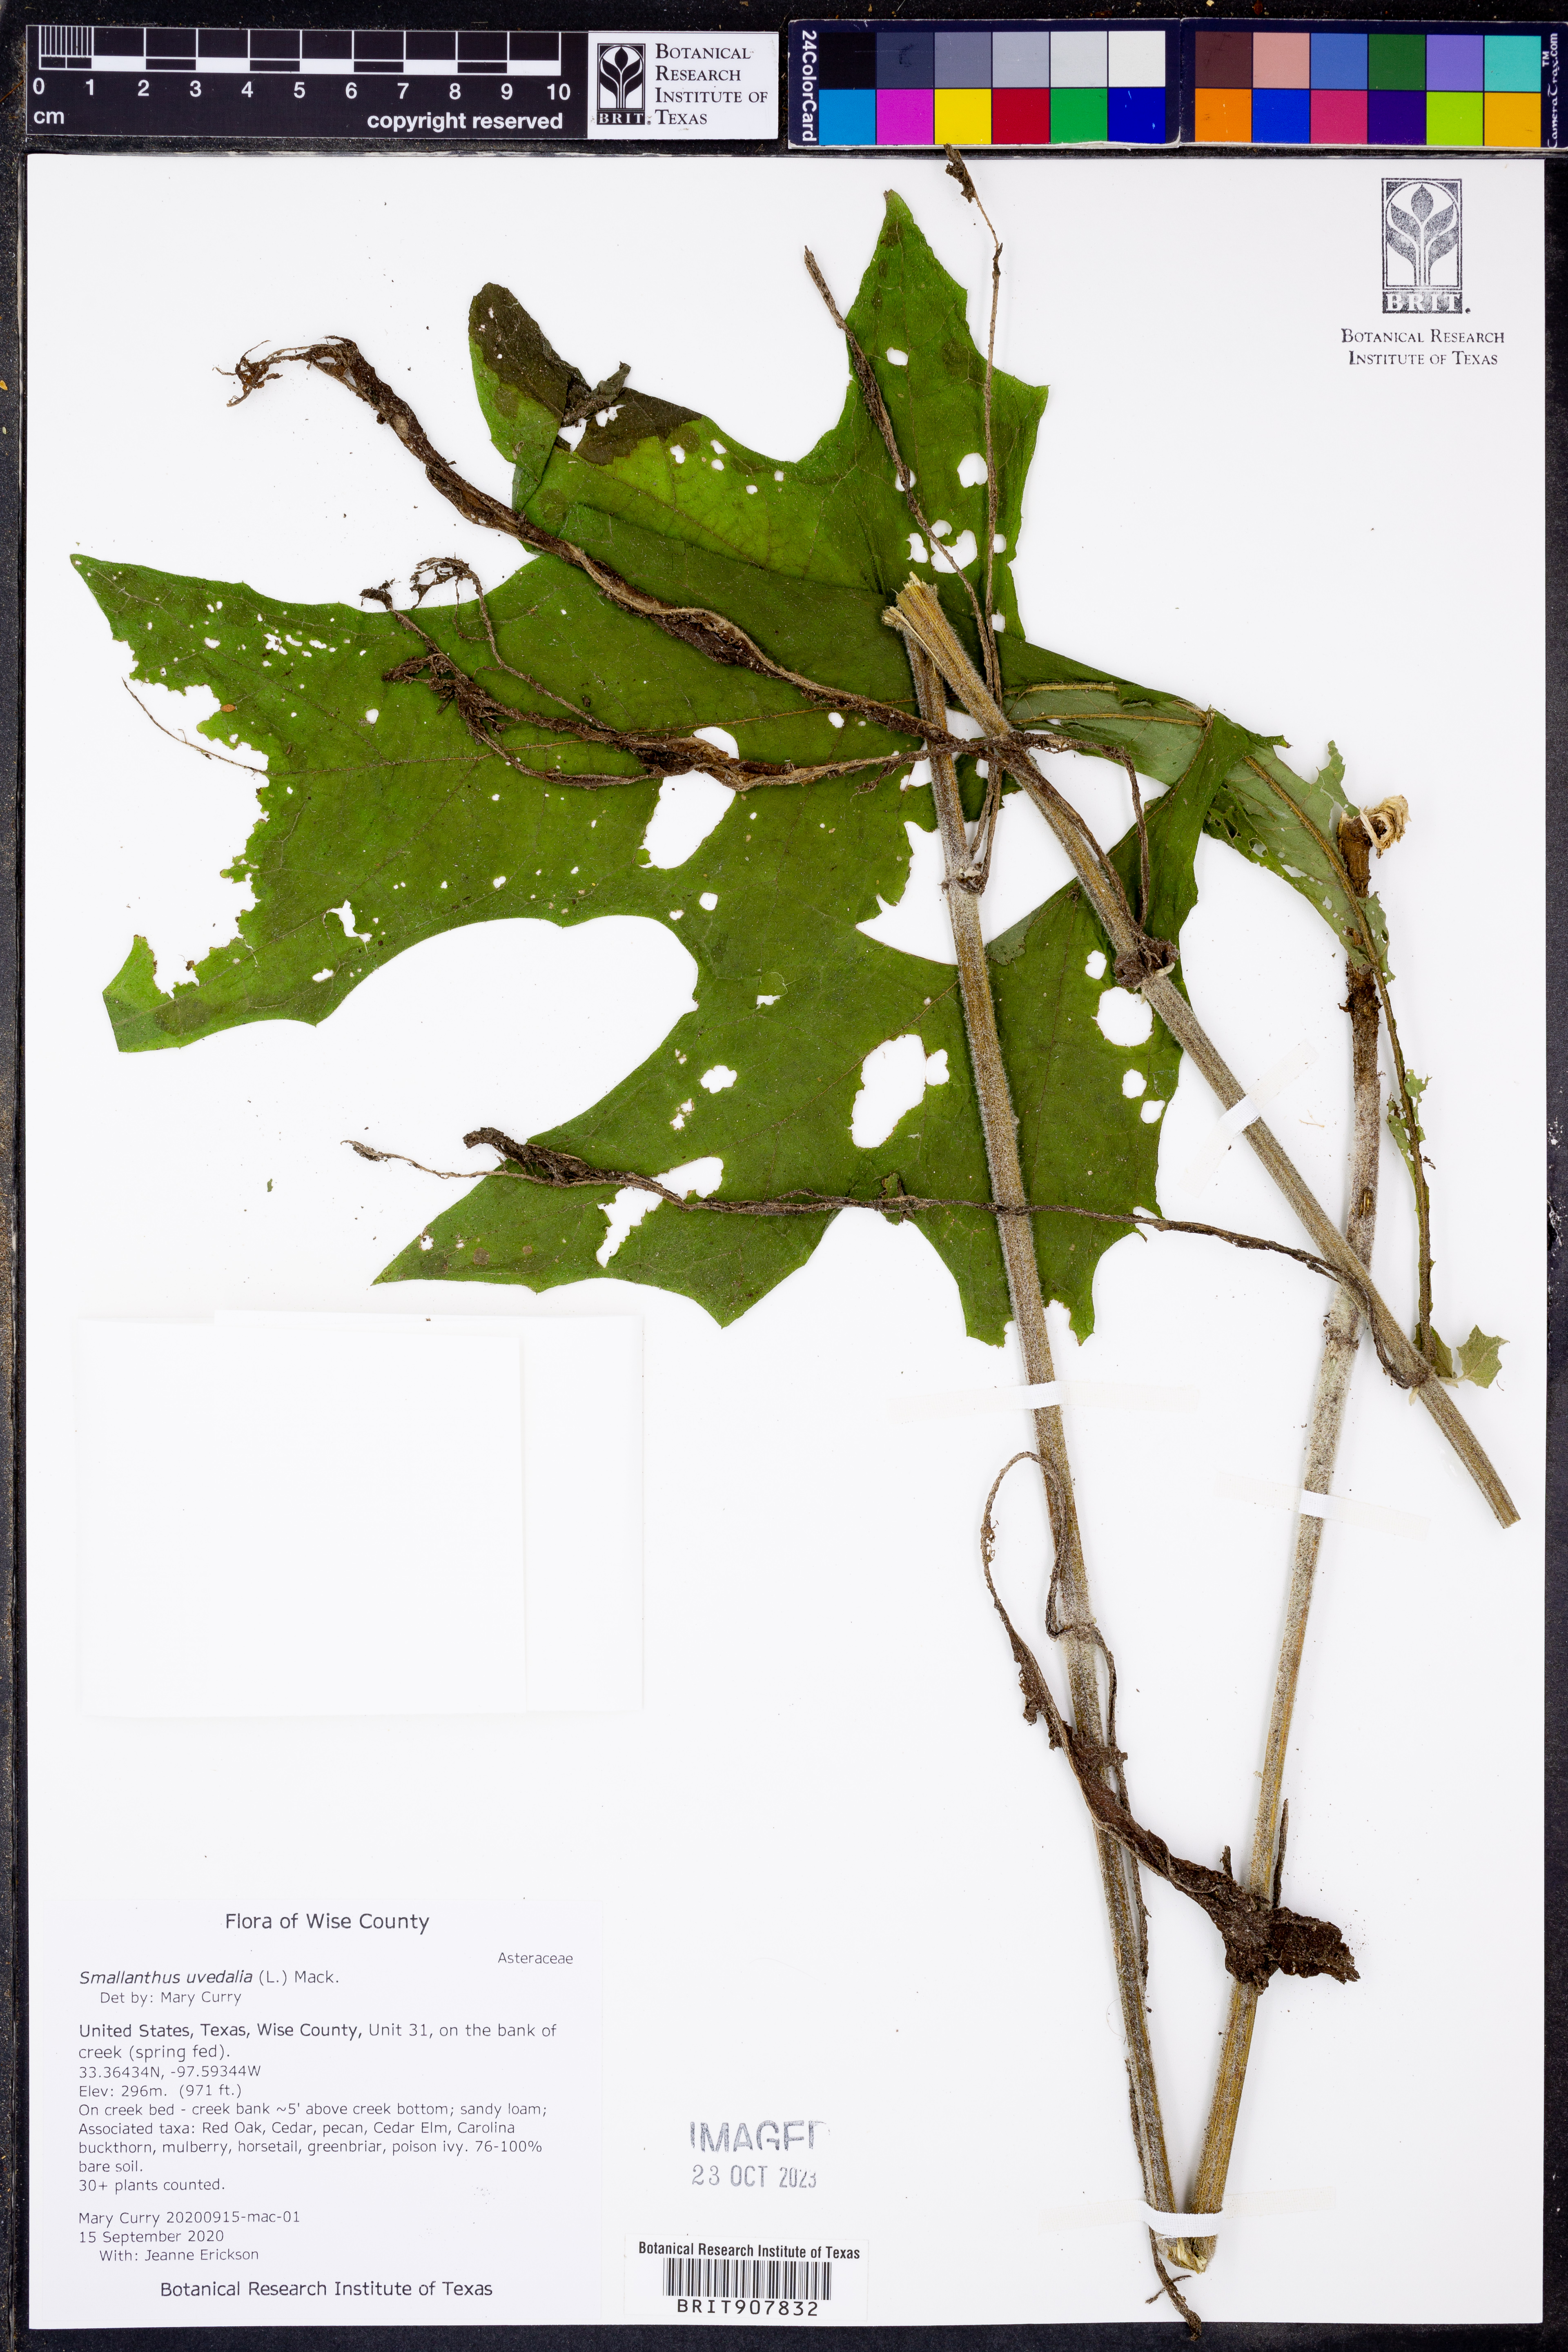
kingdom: Plantae
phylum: Tracheophyta
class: Magnoliopsida
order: Asterales
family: Asteraceae
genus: Smallanthus
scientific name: Smallanthus uvedalia
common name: Bear's-foot
